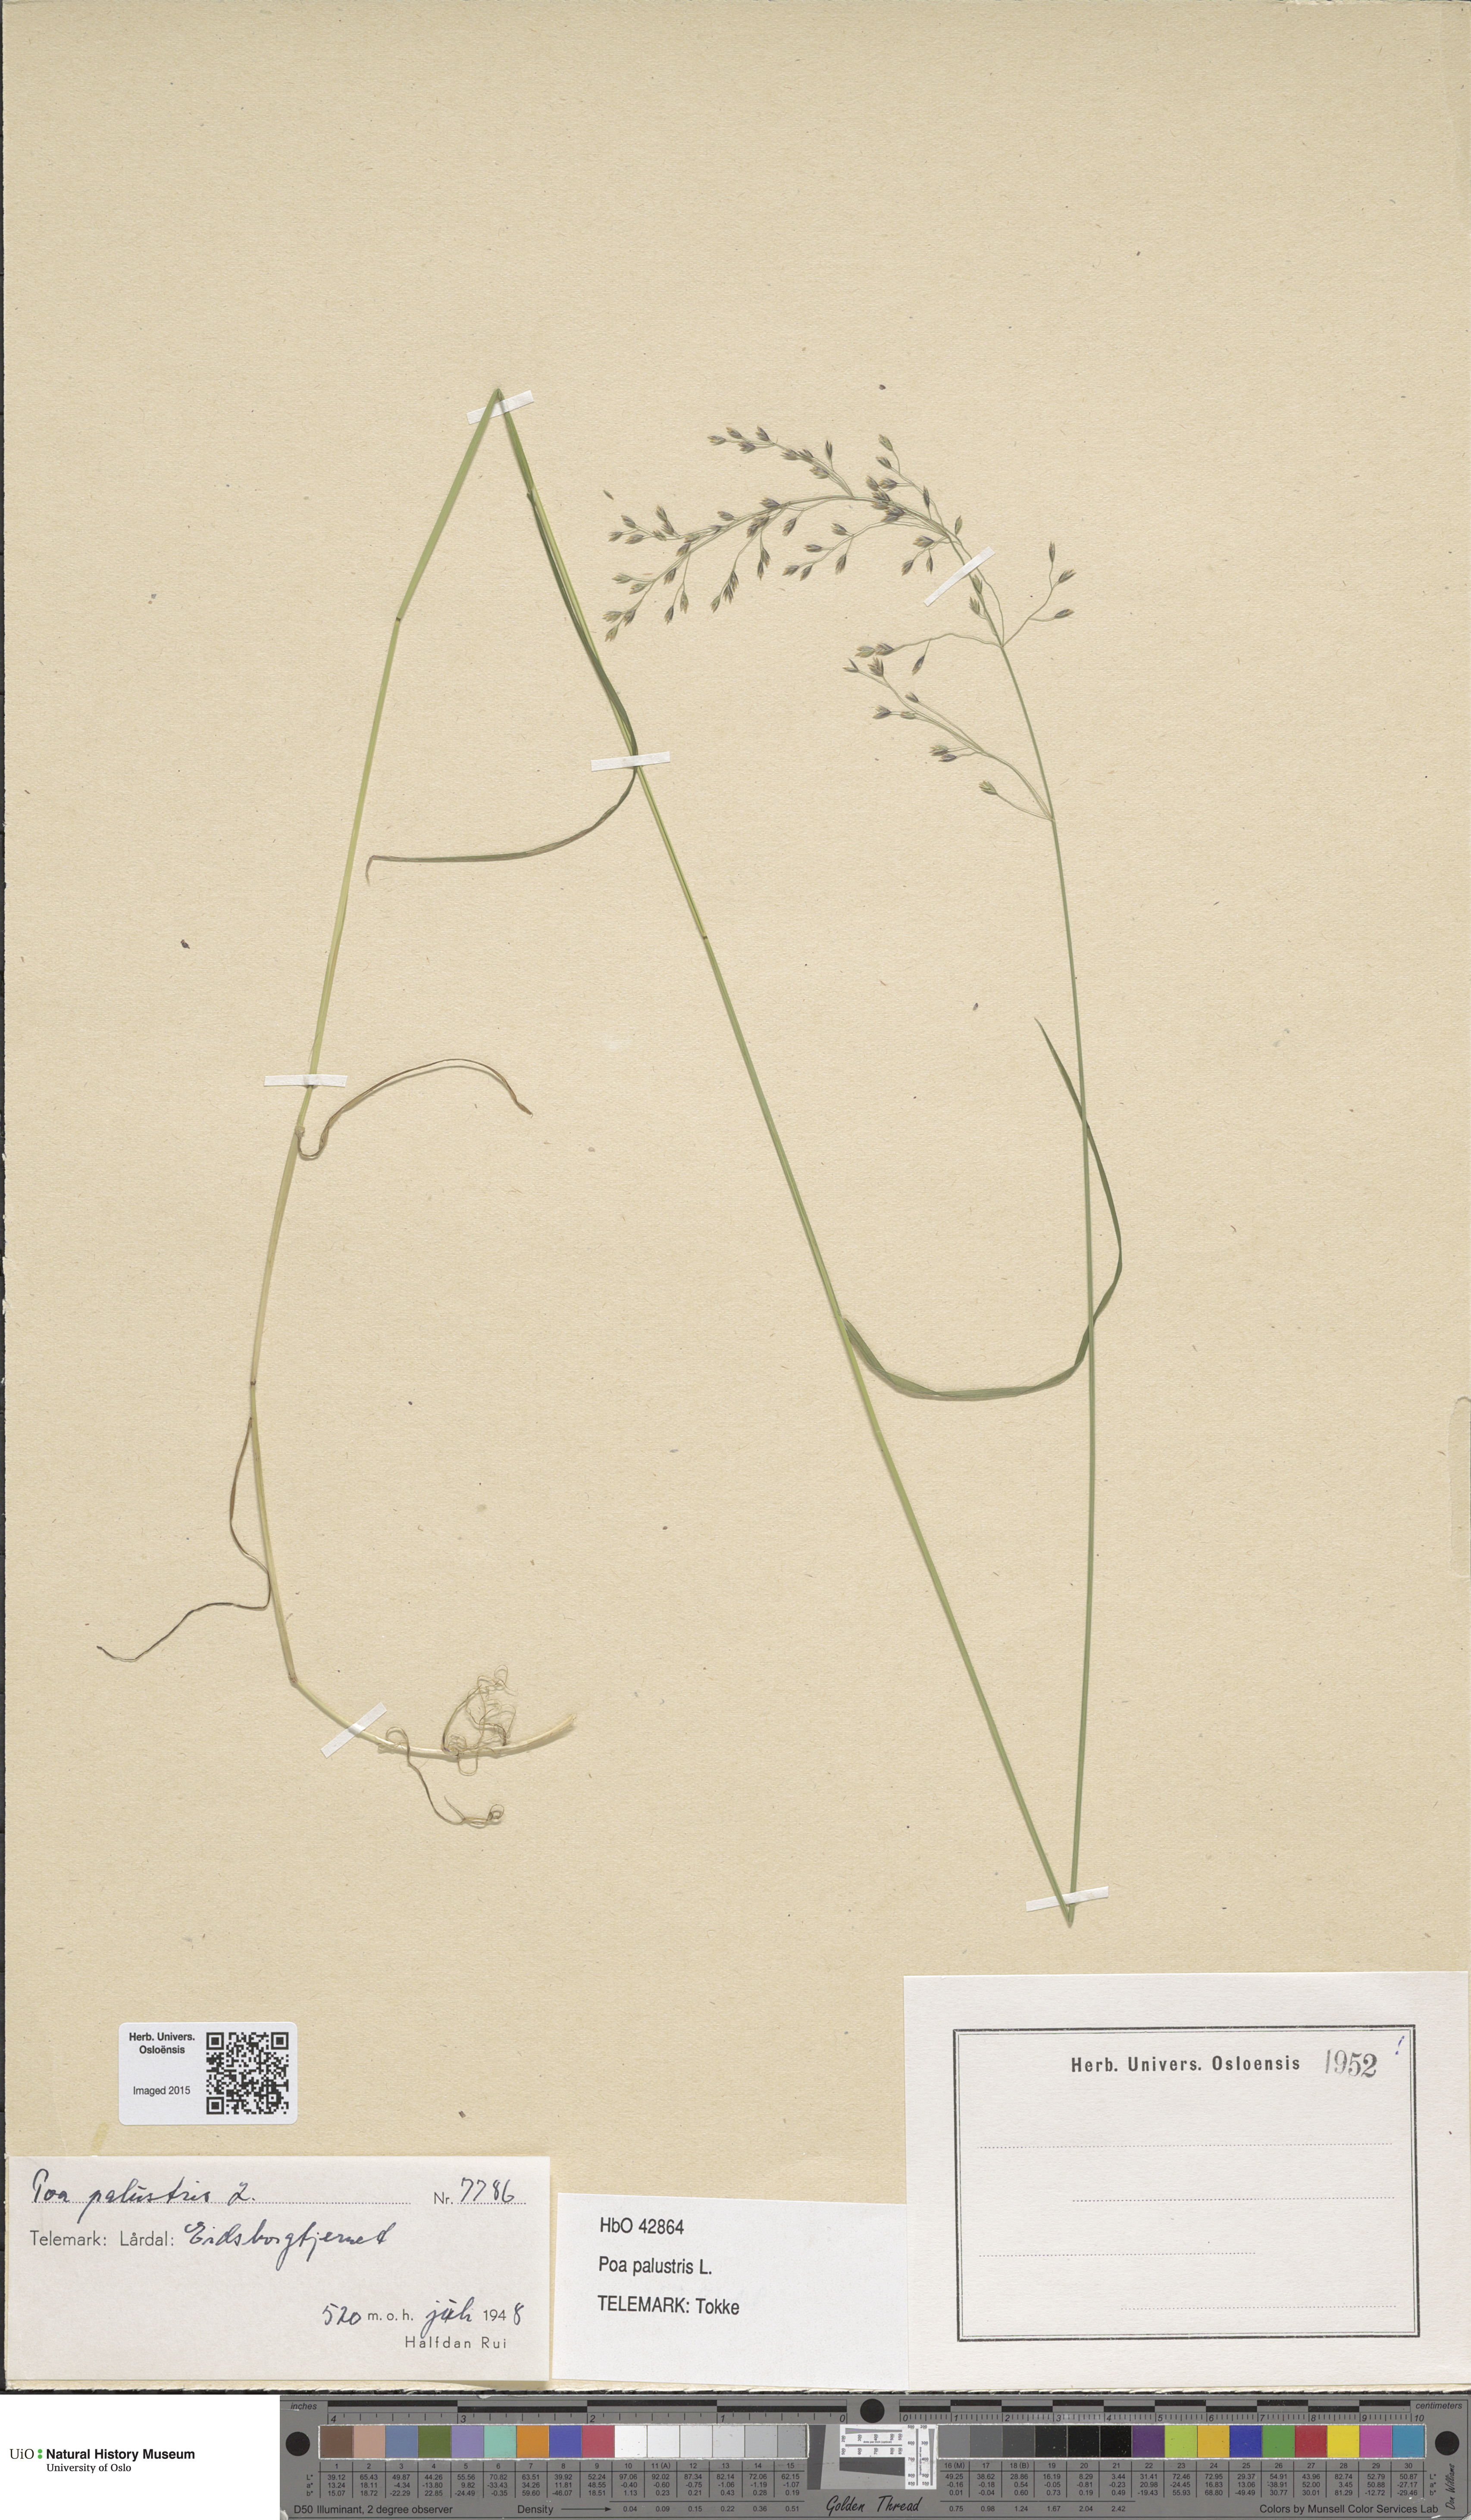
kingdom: Plantae
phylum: Tracheophyta
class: Liliopsida
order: Poales
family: Poaceae
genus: Poa
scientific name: Poa palustris
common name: Swamp meadow-grass
